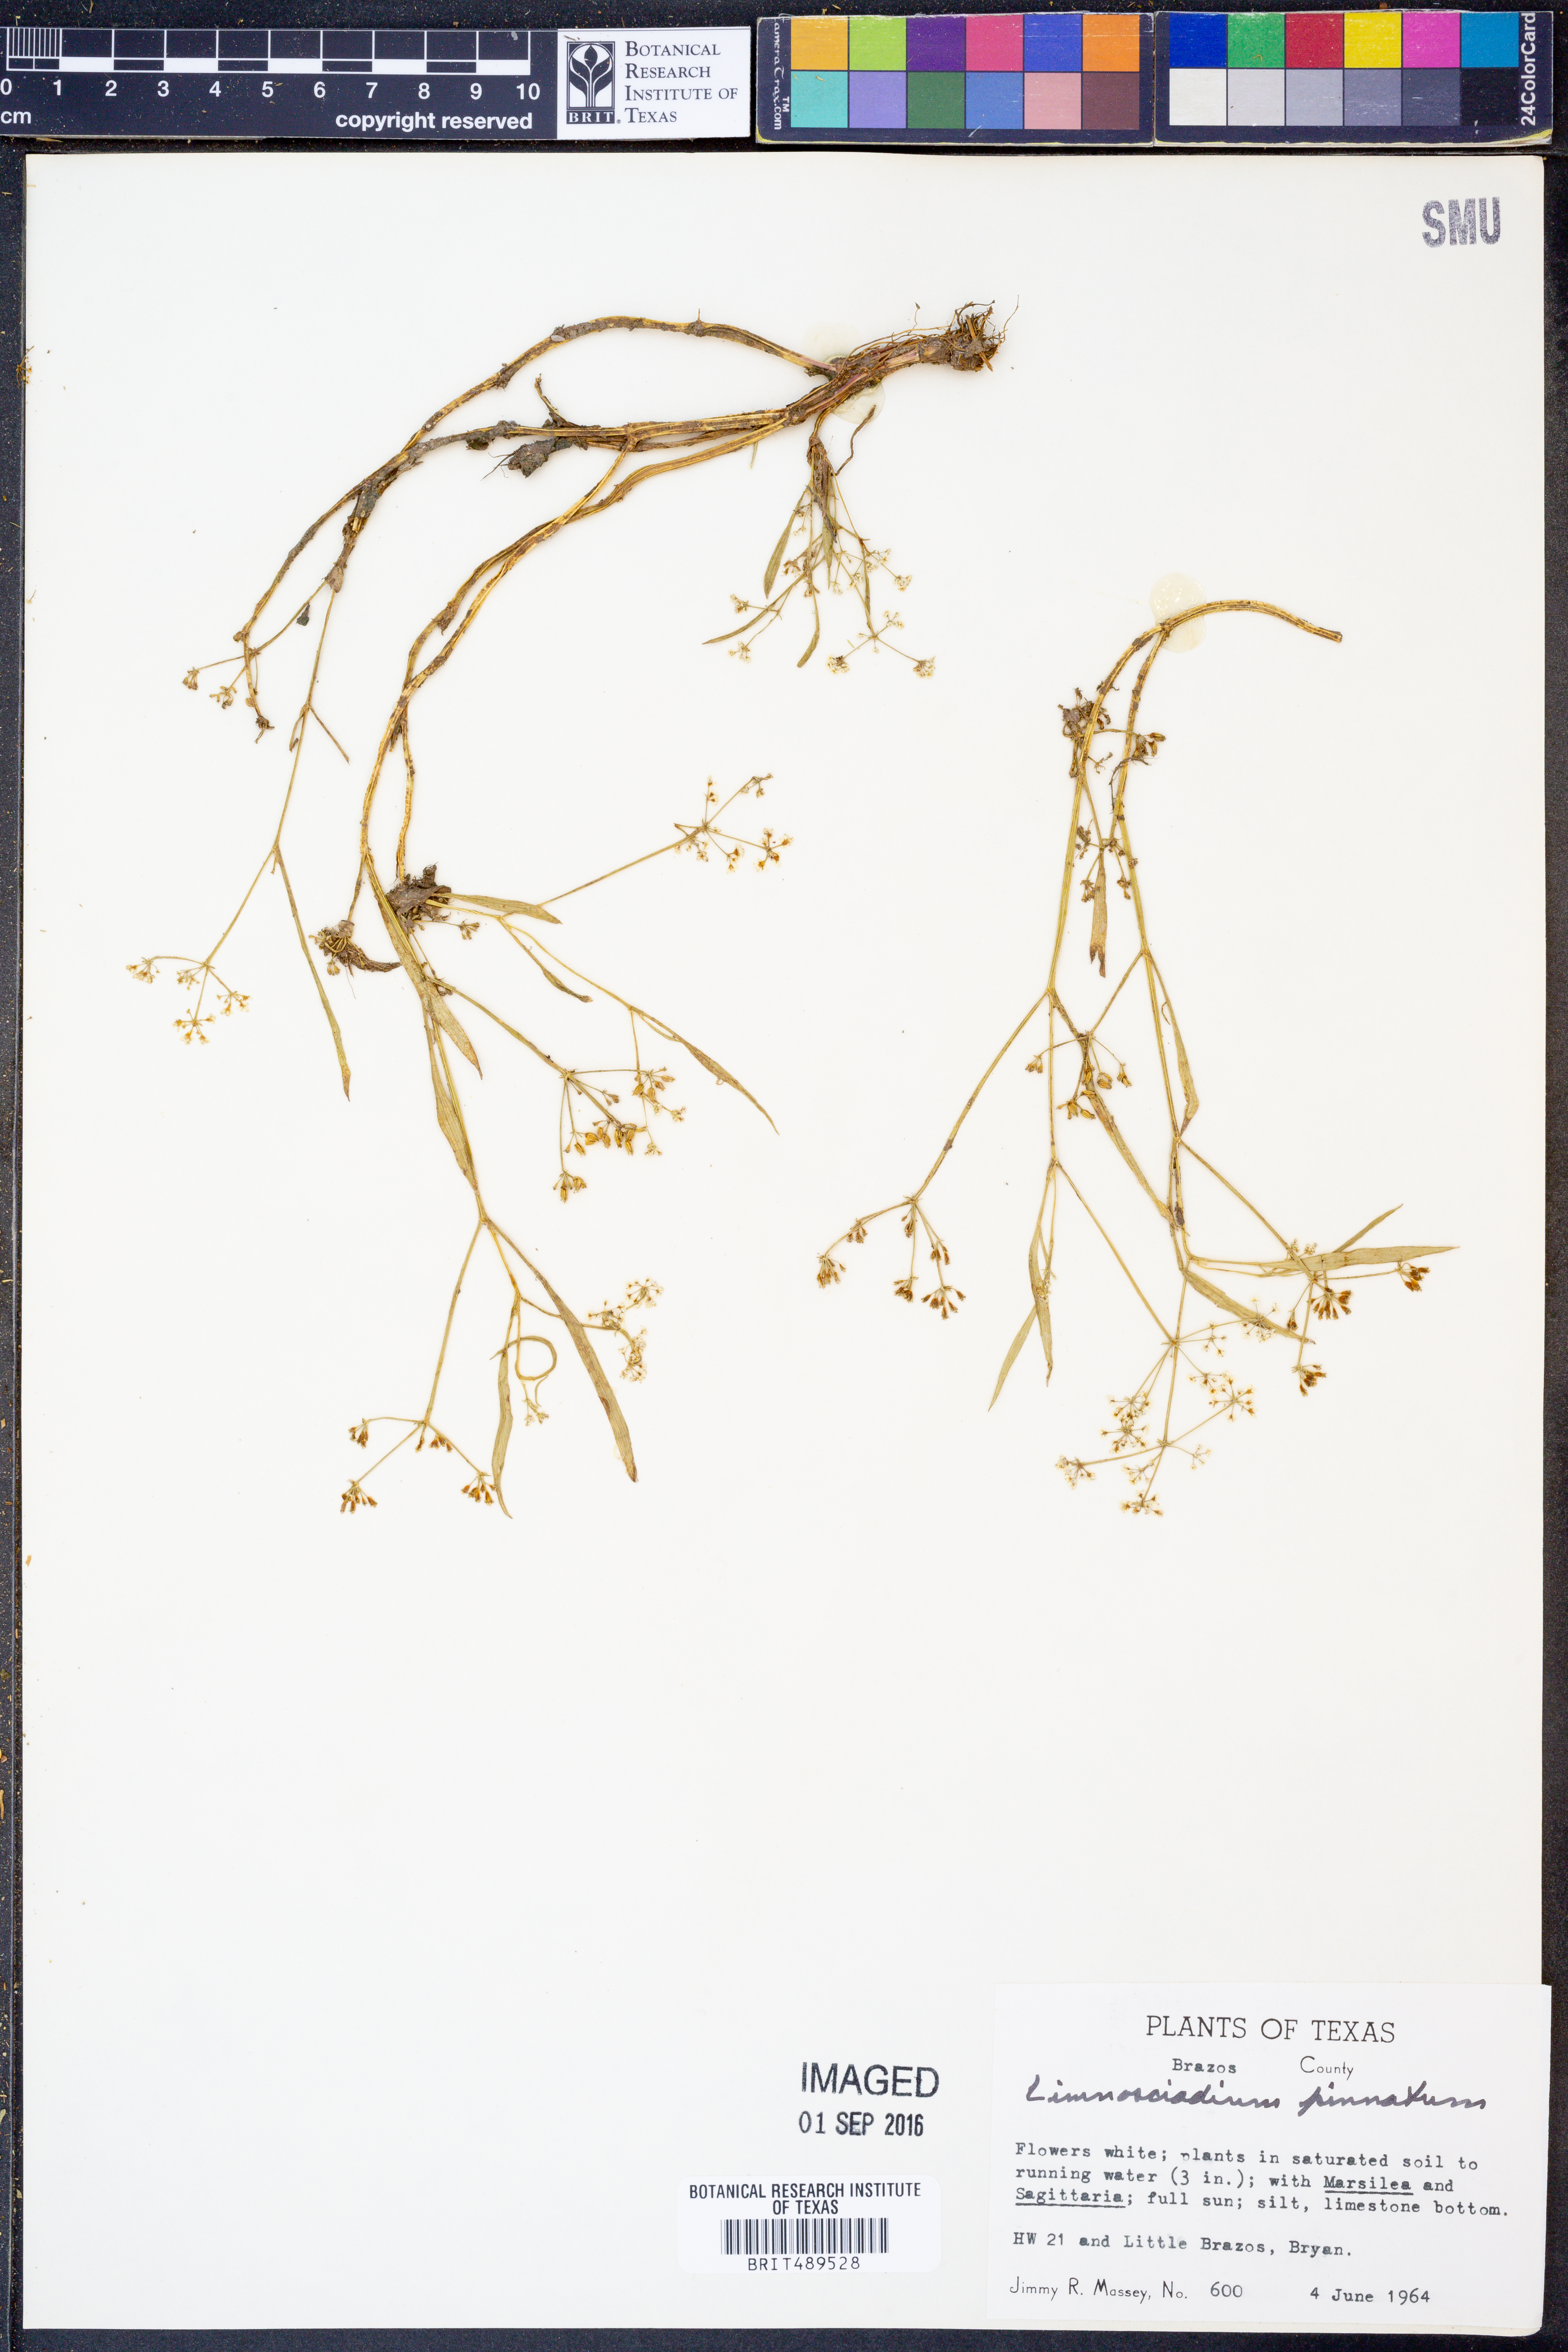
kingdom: Plantae
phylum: Tracheophyta
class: Magnoliopsida
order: Apiales
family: Apiaceae
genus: Limnosciadium
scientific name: Limnosciadium pinnatum
